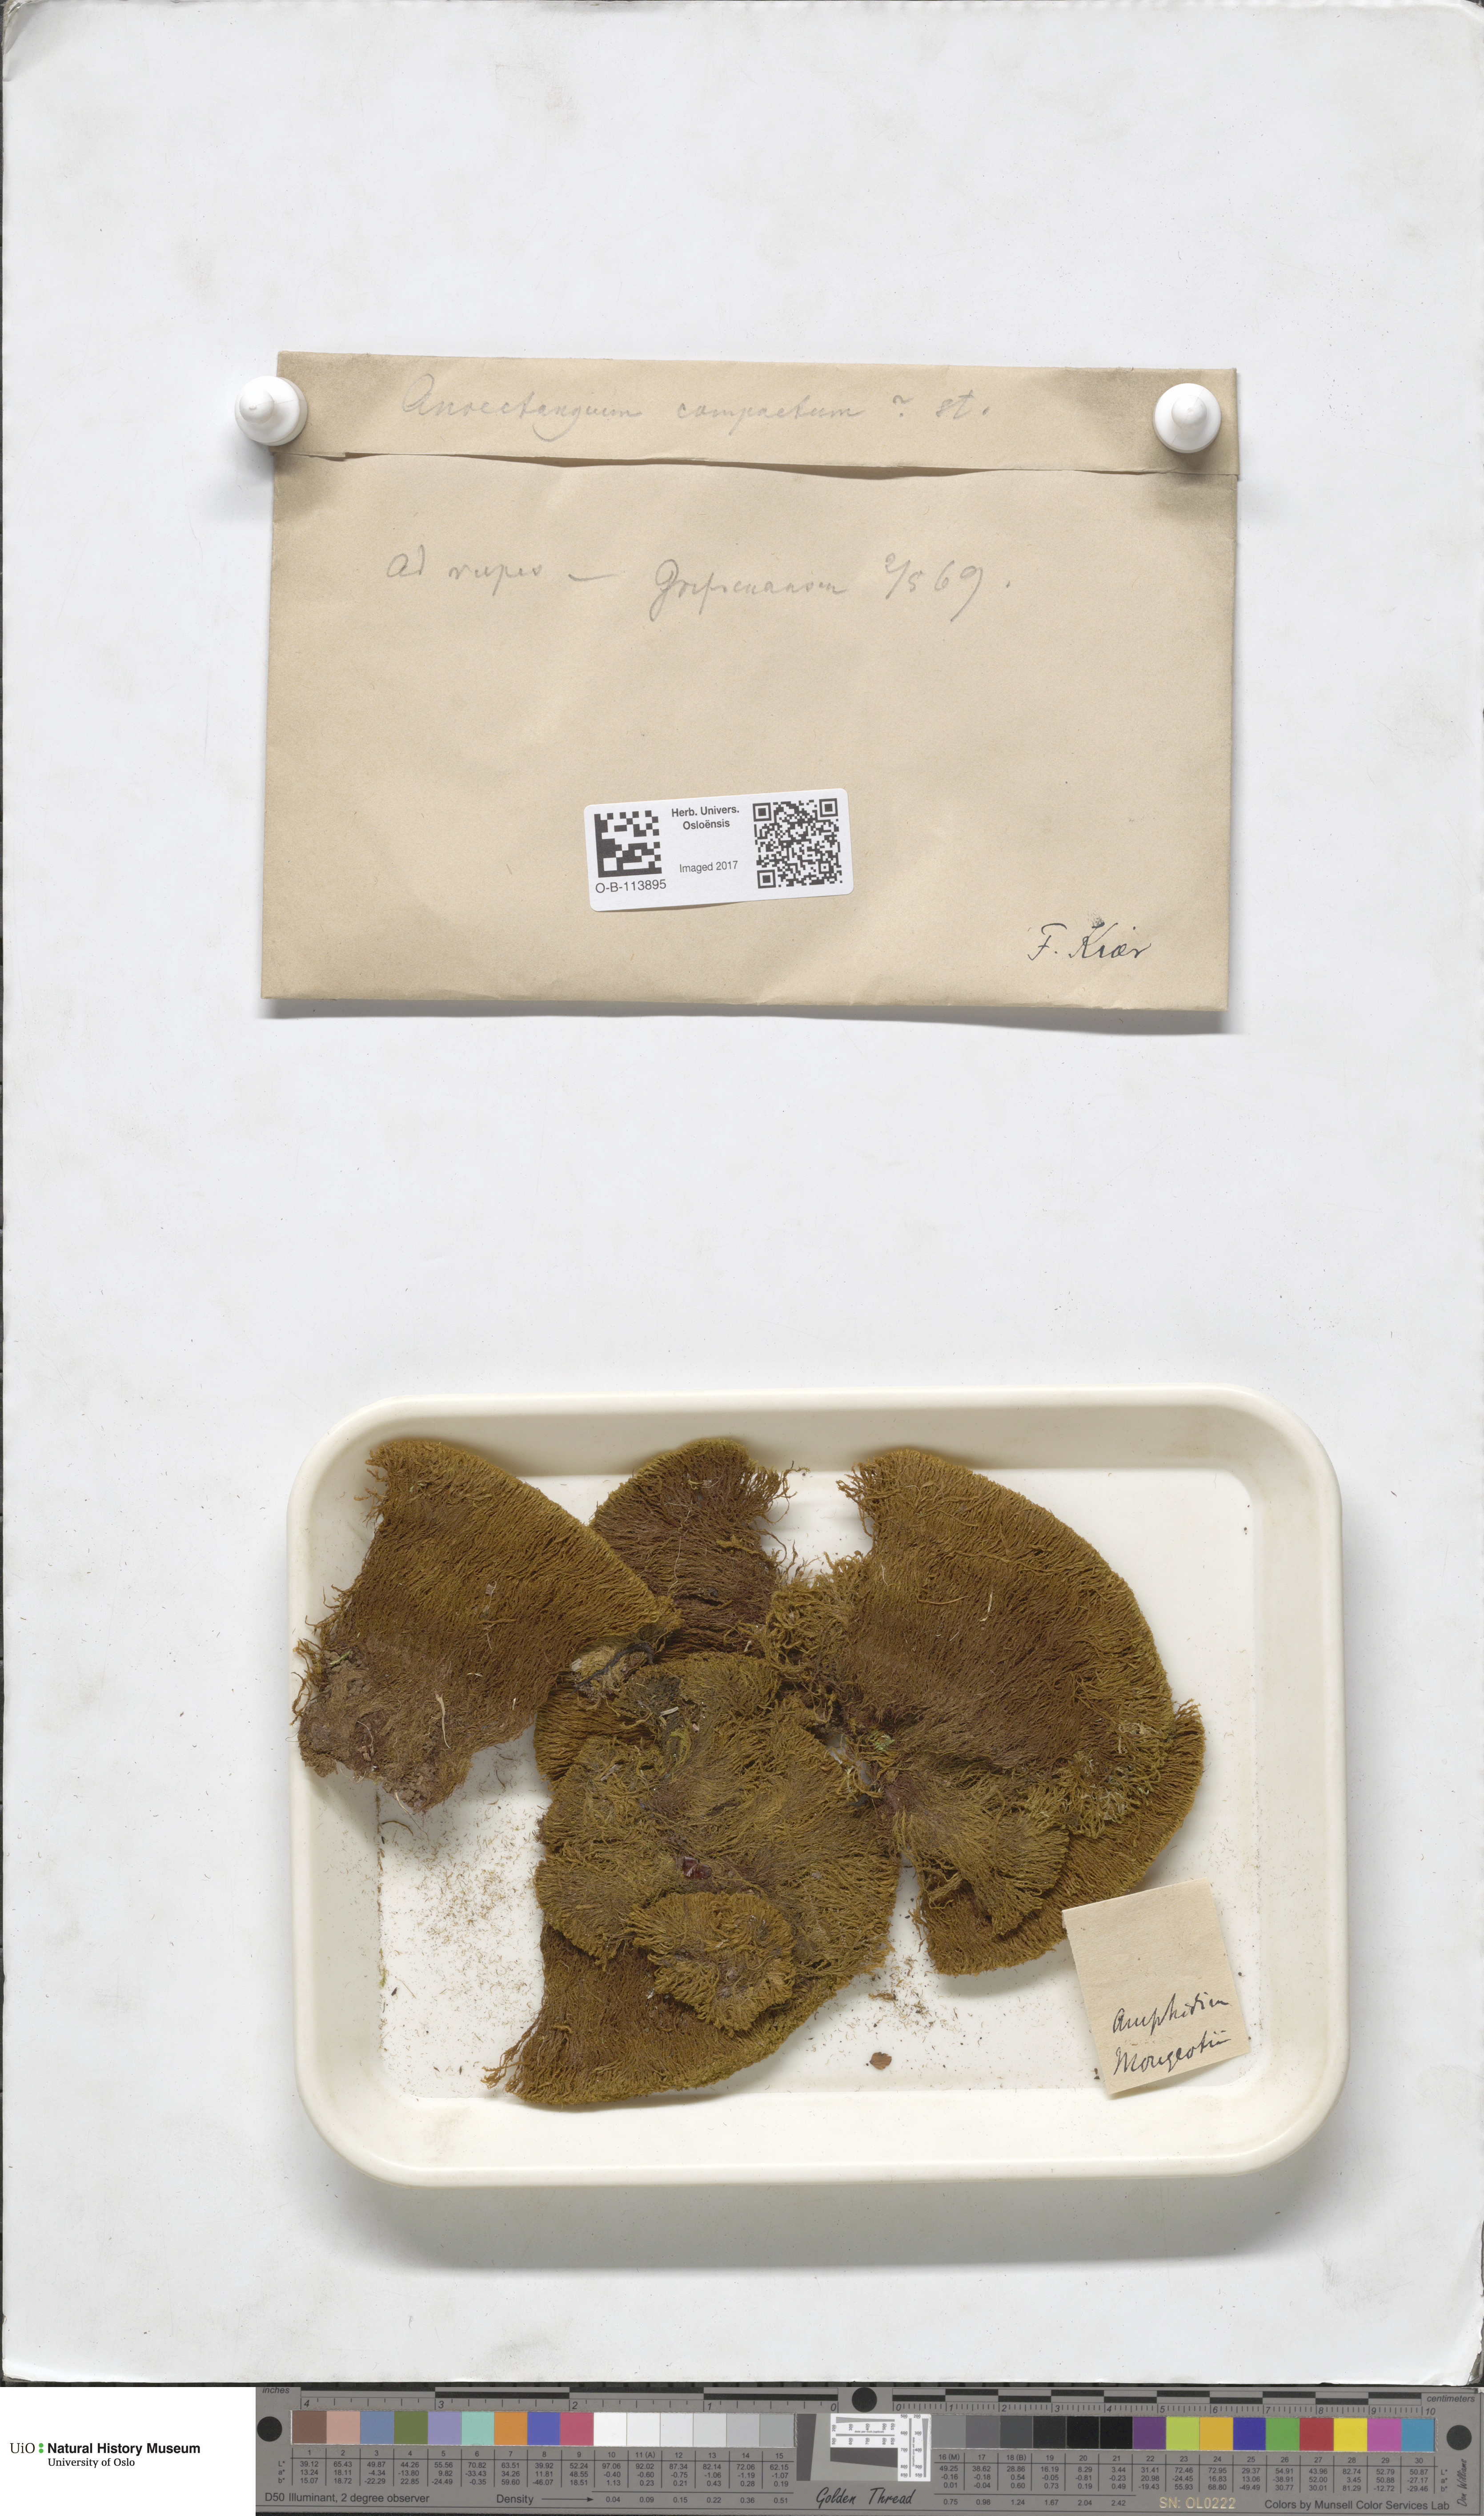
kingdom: Plantae
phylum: Bryophyta
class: Bryopsida
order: Dicranales
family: Amphidiaceae
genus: Amphidium
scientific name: Amphidium mougeotii
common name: Mougeot's yoke moss
